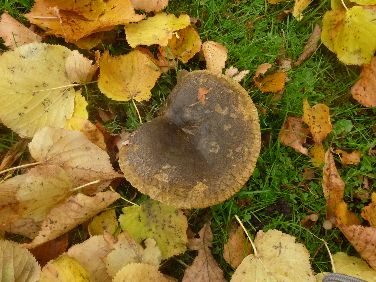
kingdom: Fungi
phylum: Basidiomycota
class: Agaricomycetes
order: Russulales
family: Russulaceae
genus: Lactarius
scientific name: Lactarius necator
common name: manddraber-mælkehat
